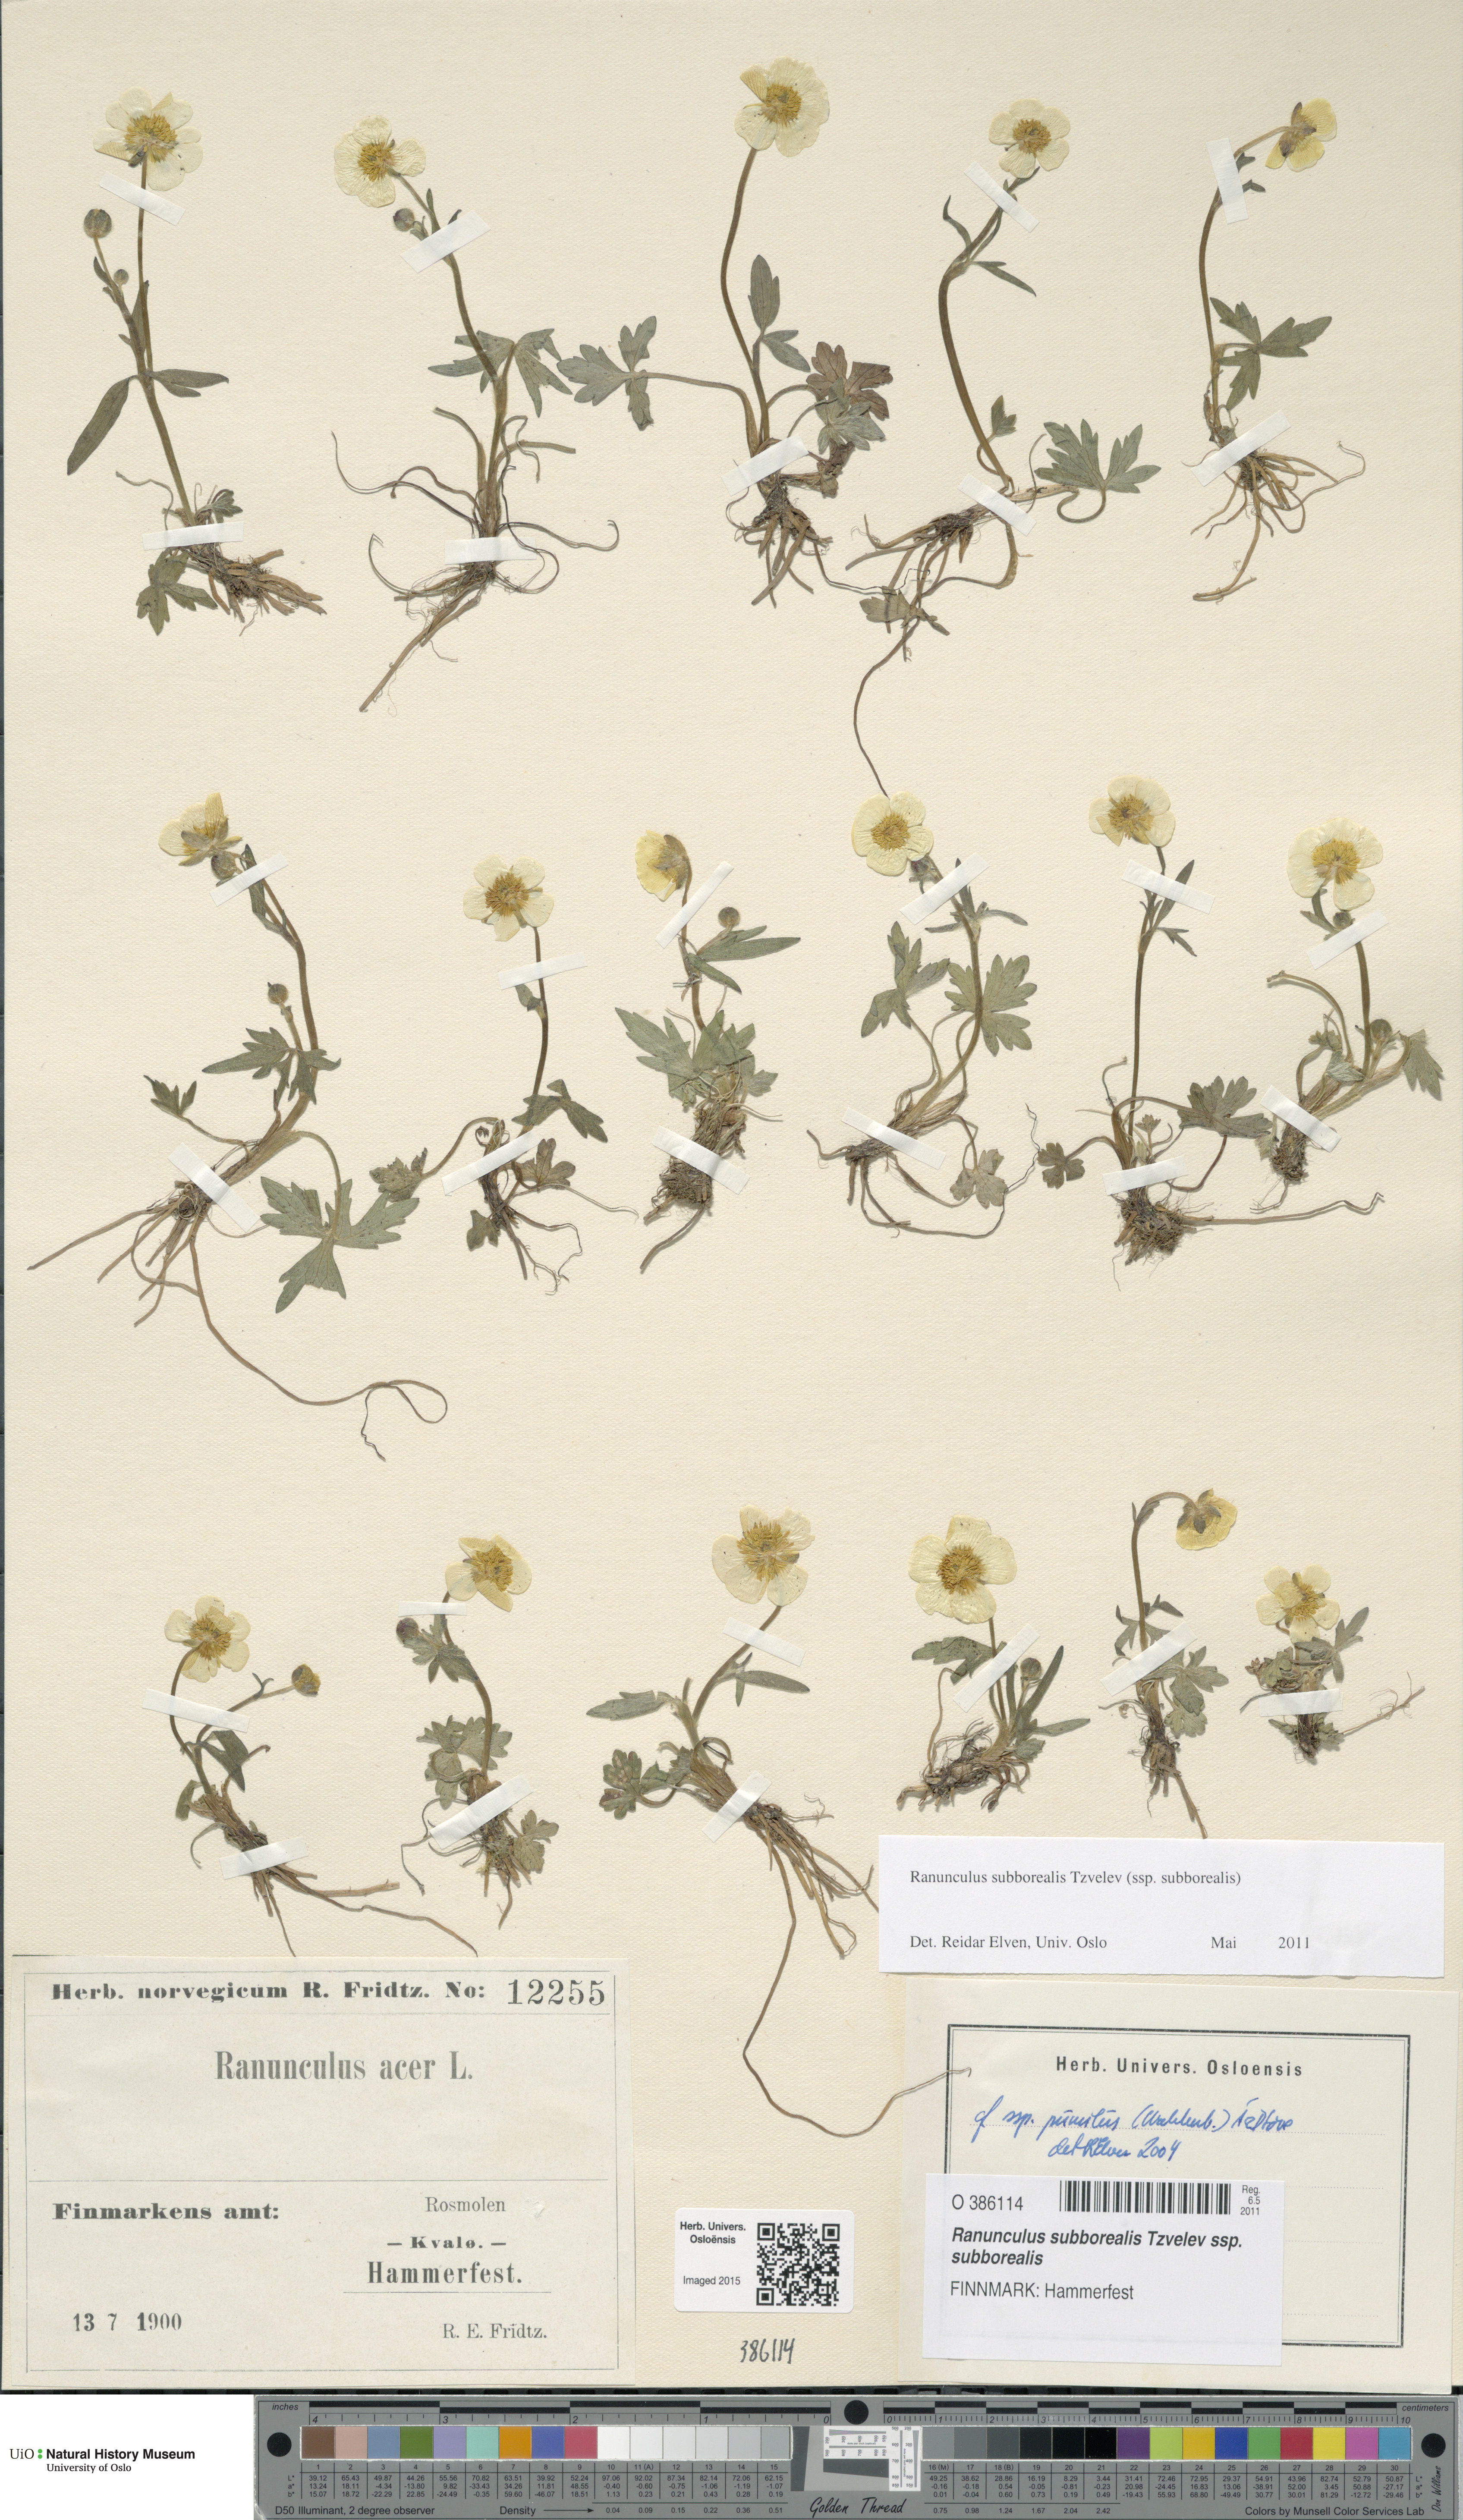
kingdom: Plantae
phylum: Tracheophyta
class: Magnoliopsida
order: Ranunculales
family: Ranunculaceae
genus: Ranunculus
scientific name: Ranunculus propinquus
